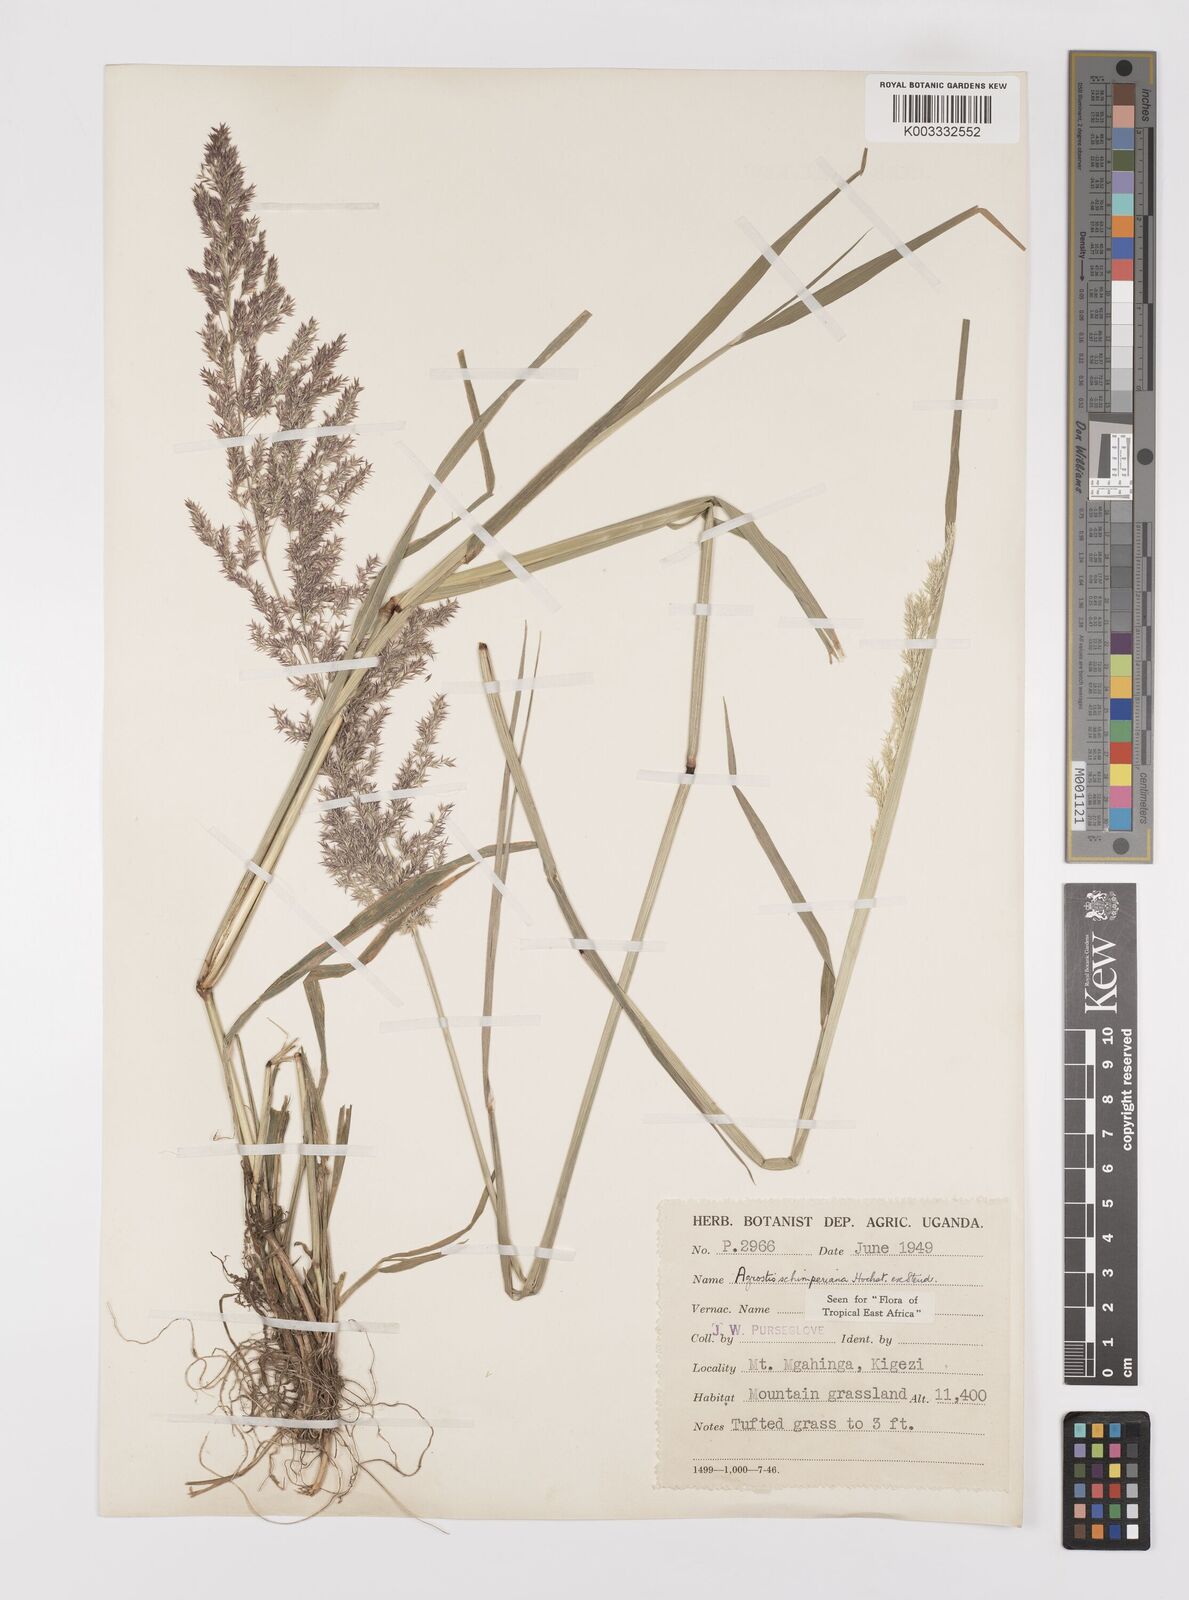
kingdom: Plantae
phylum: Tracheophyta
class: Liliopsida
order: Poales
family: Poaceae
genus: Polypogon
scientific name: Polypogon schimperianus
